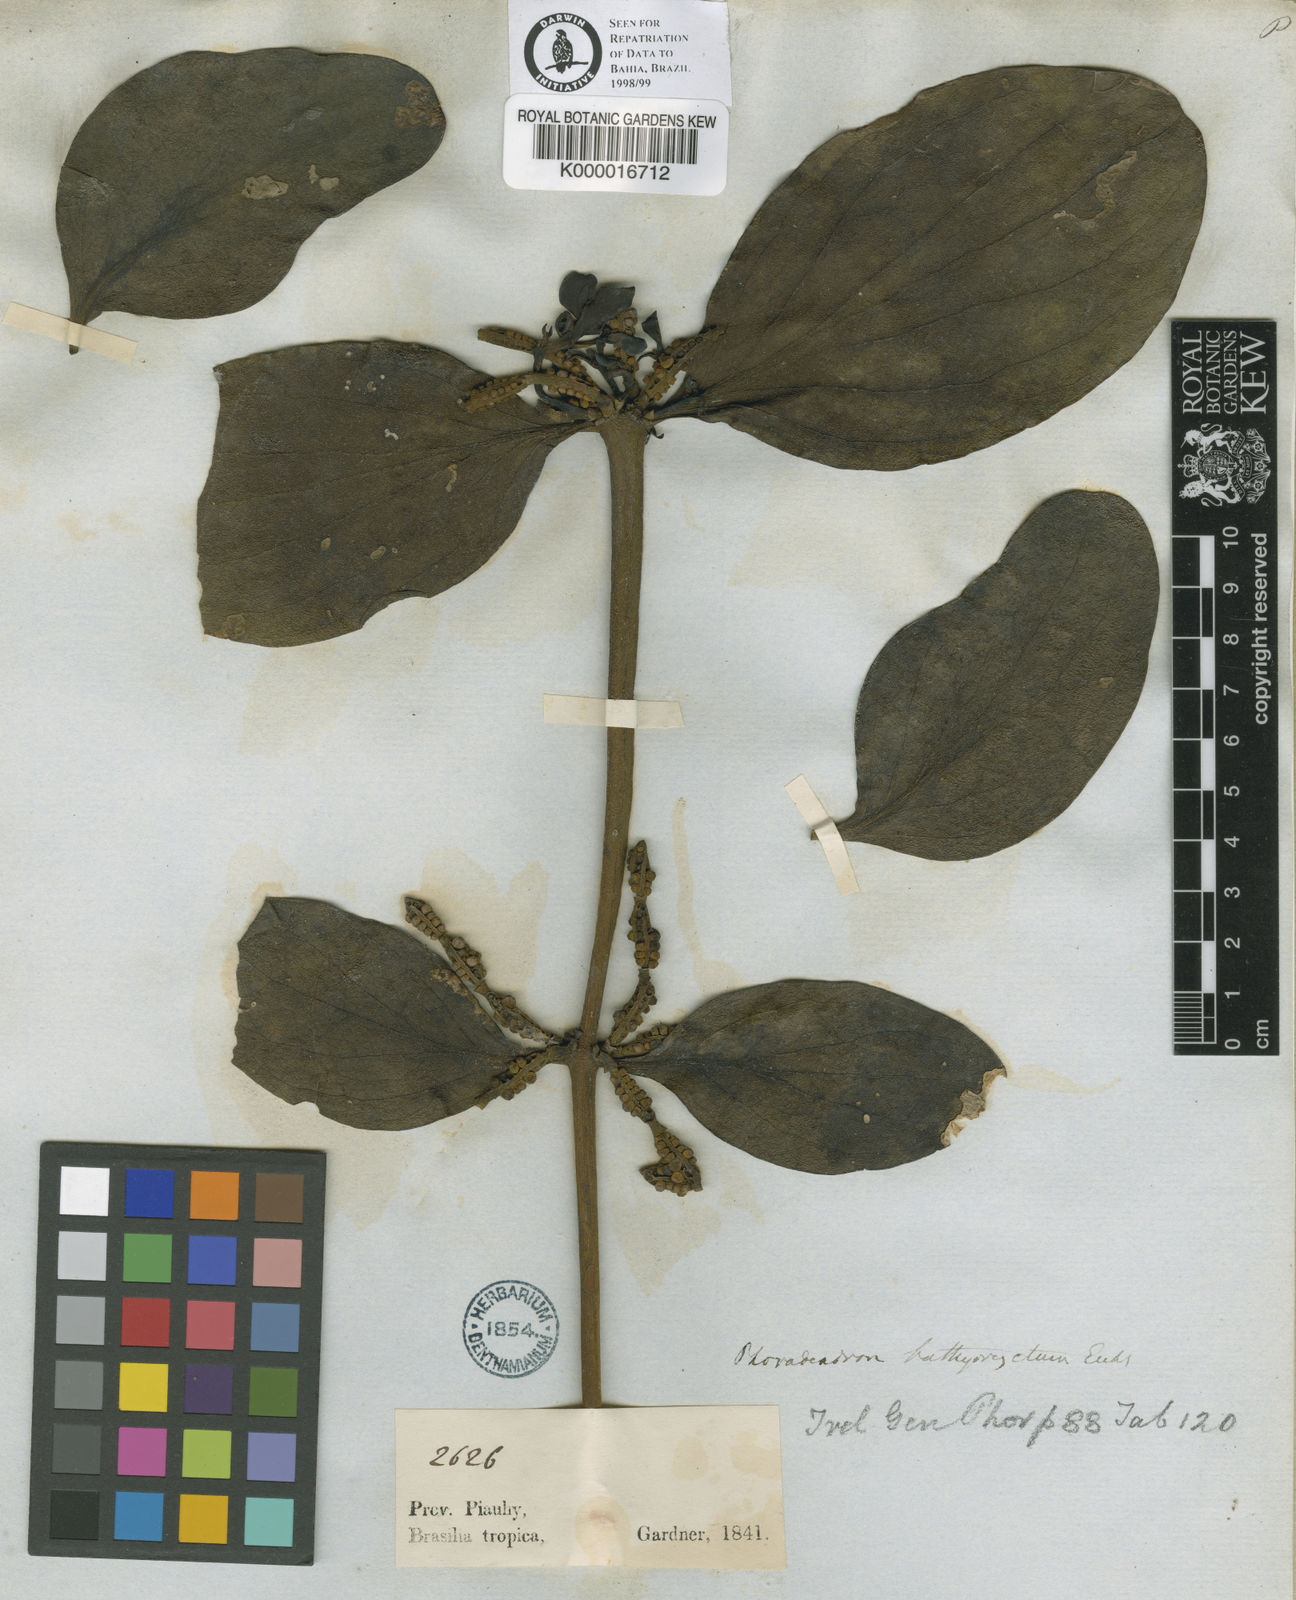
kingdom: Plantae
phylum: Tracheophyta
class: Magnoliopsida
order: Santalales
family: Viscaceae
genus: Phoradendron
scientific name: Phoradendron bathyoryctum
